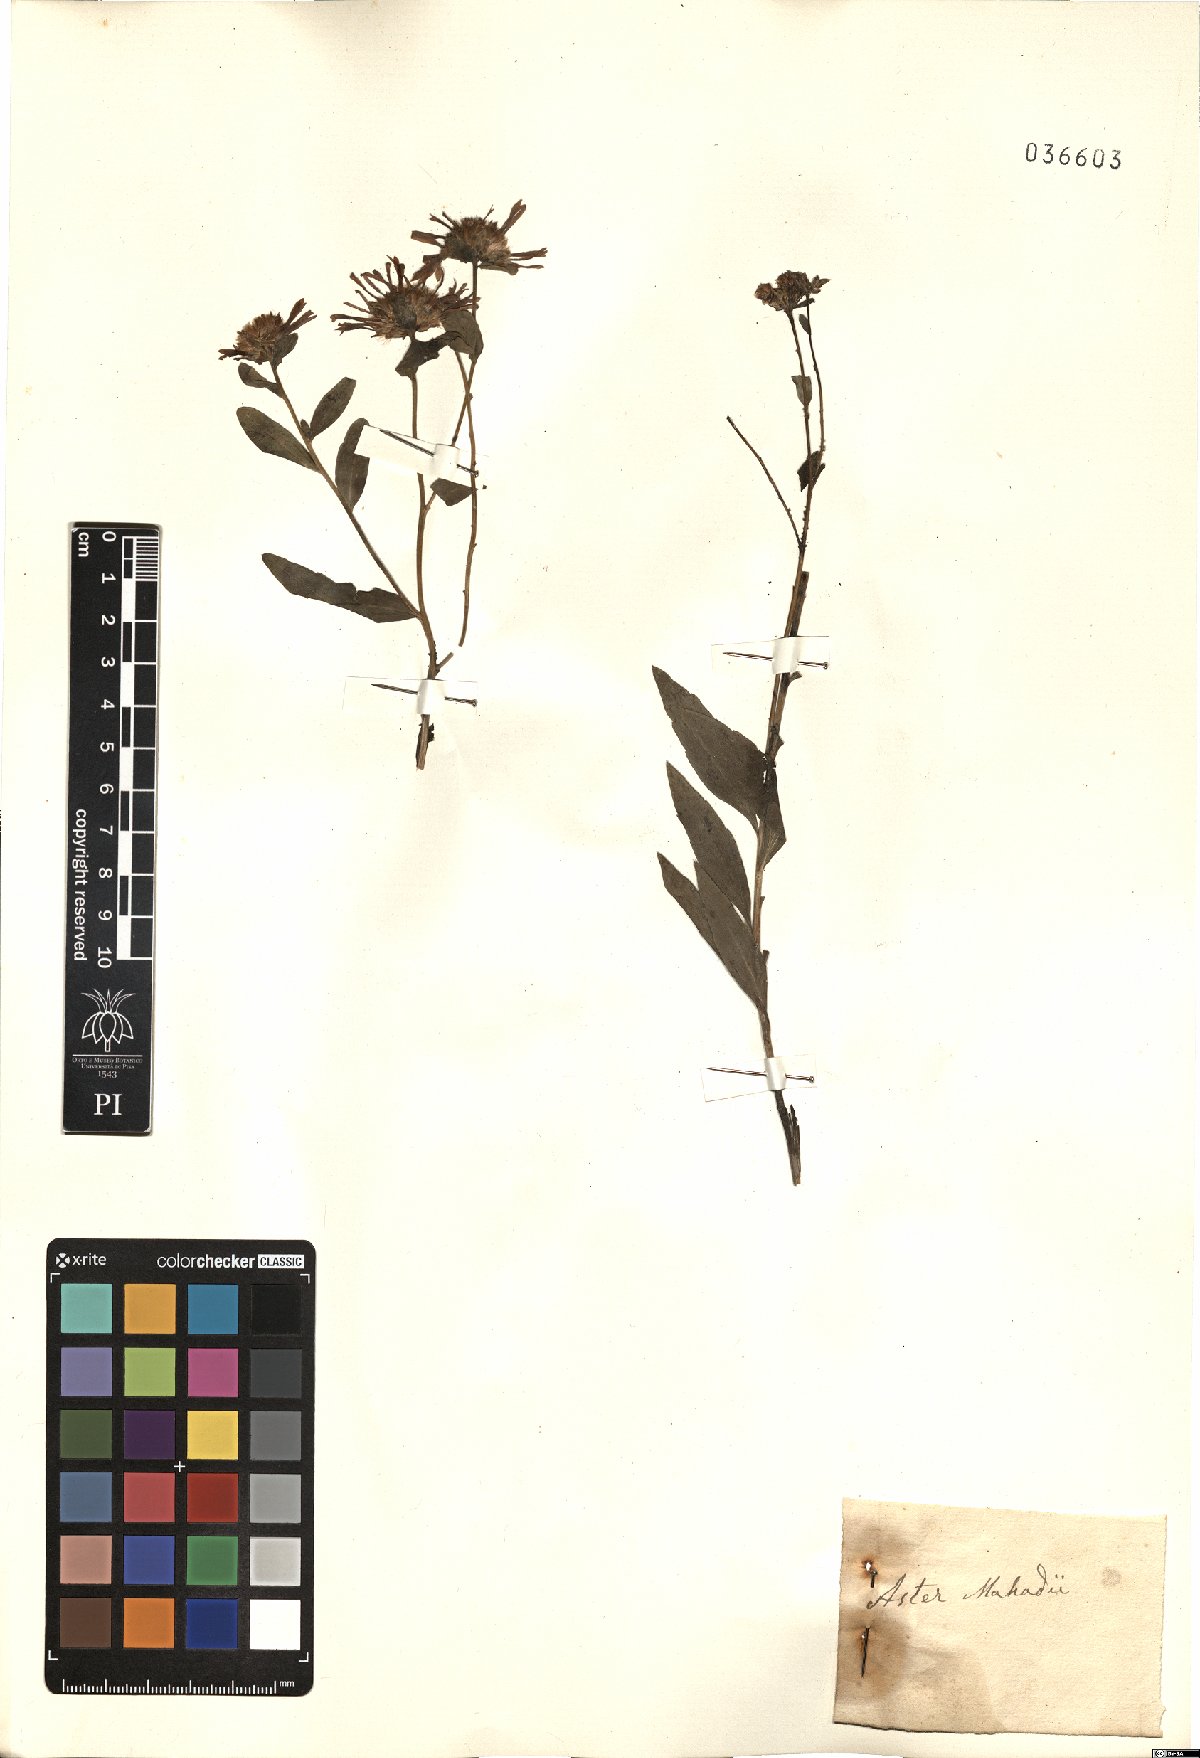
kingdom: Plantae
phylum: Tracheophyta
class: Magnoliopsida
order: Asterales
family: Asteraceae
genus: Aster
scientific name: Aster
